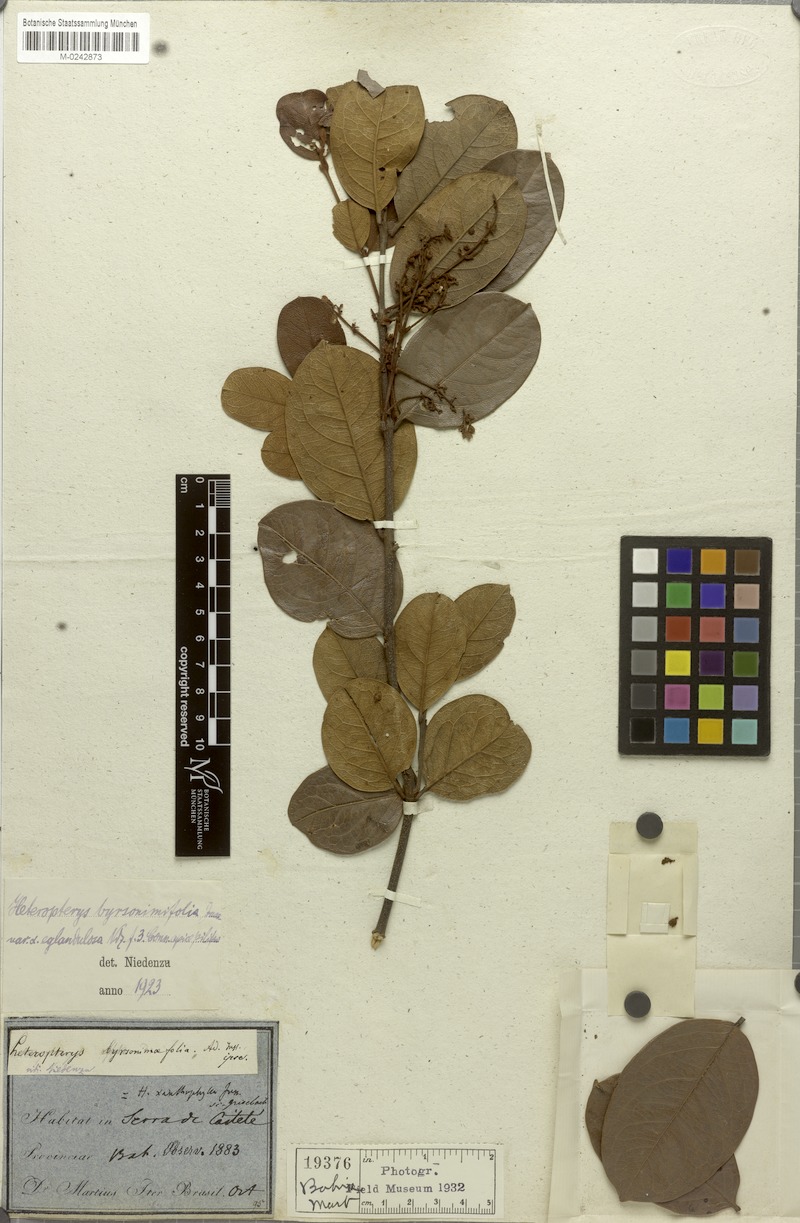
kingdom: Plantae
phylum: Tracheophyta
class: Magnoliopsida
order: Malpighiales
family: Malpighiaceae
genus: Heteropterys
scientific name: Heteropterys byrsonimifolia
